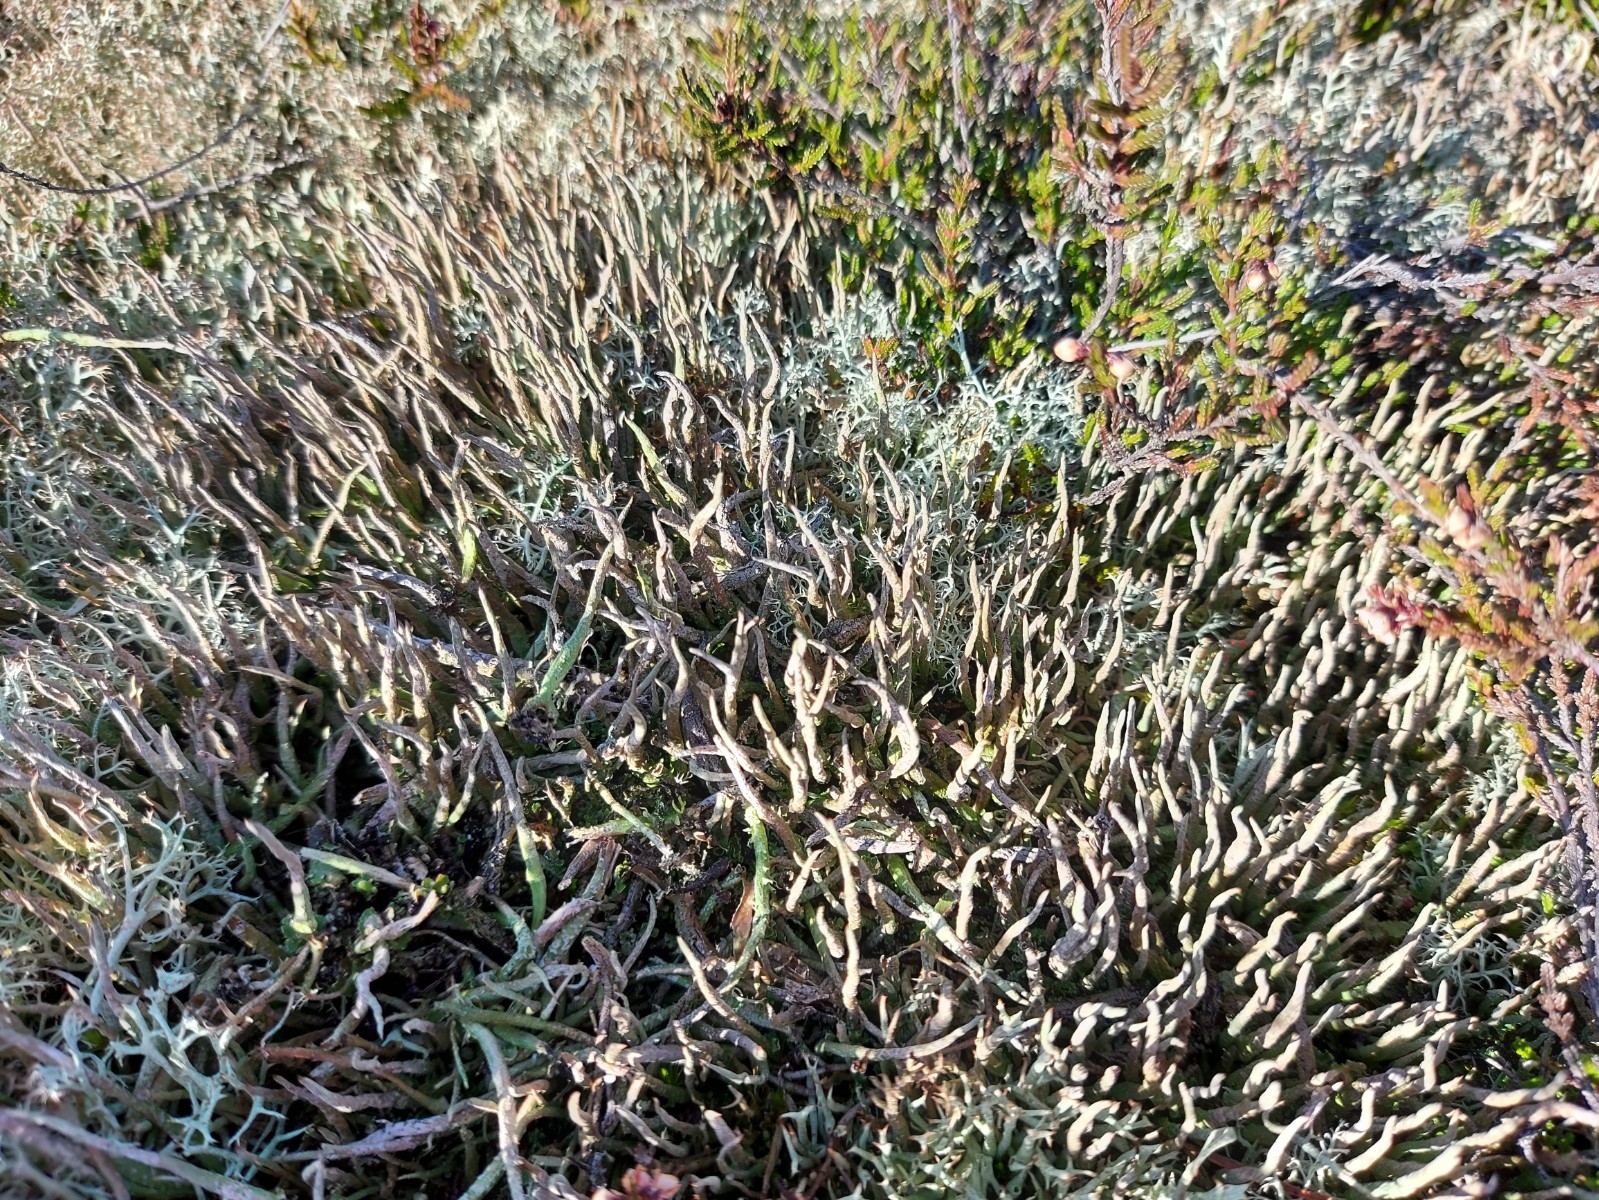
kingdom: Fungi
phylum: Ascomycota
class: Lecanoromycetes
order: Lecanorales
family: Cladoniaceae
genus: Cladonia
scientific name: Cladonia cornuta
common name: syl-bægerlav
